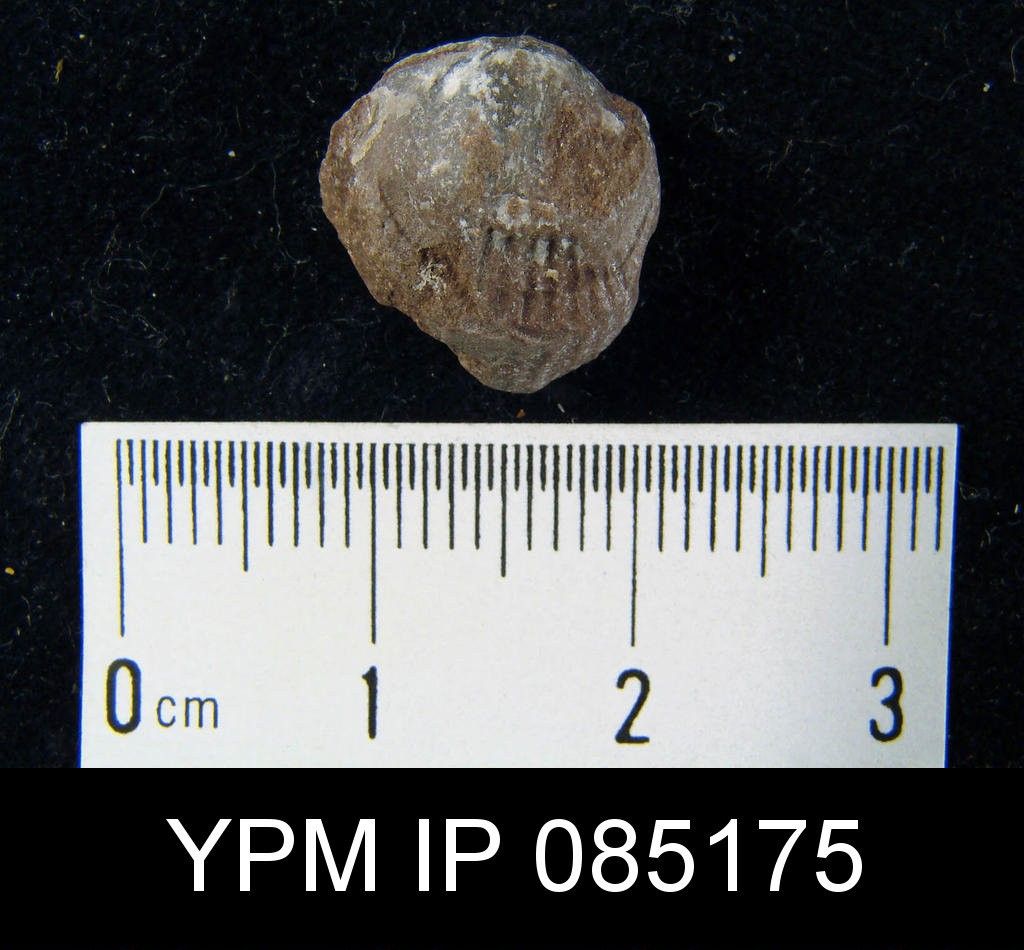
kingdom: Animalia
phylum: Brachiopoda
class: Rhynchonellata
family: Atrypidae
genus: Atrypa
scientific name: Atrypa reticularis
